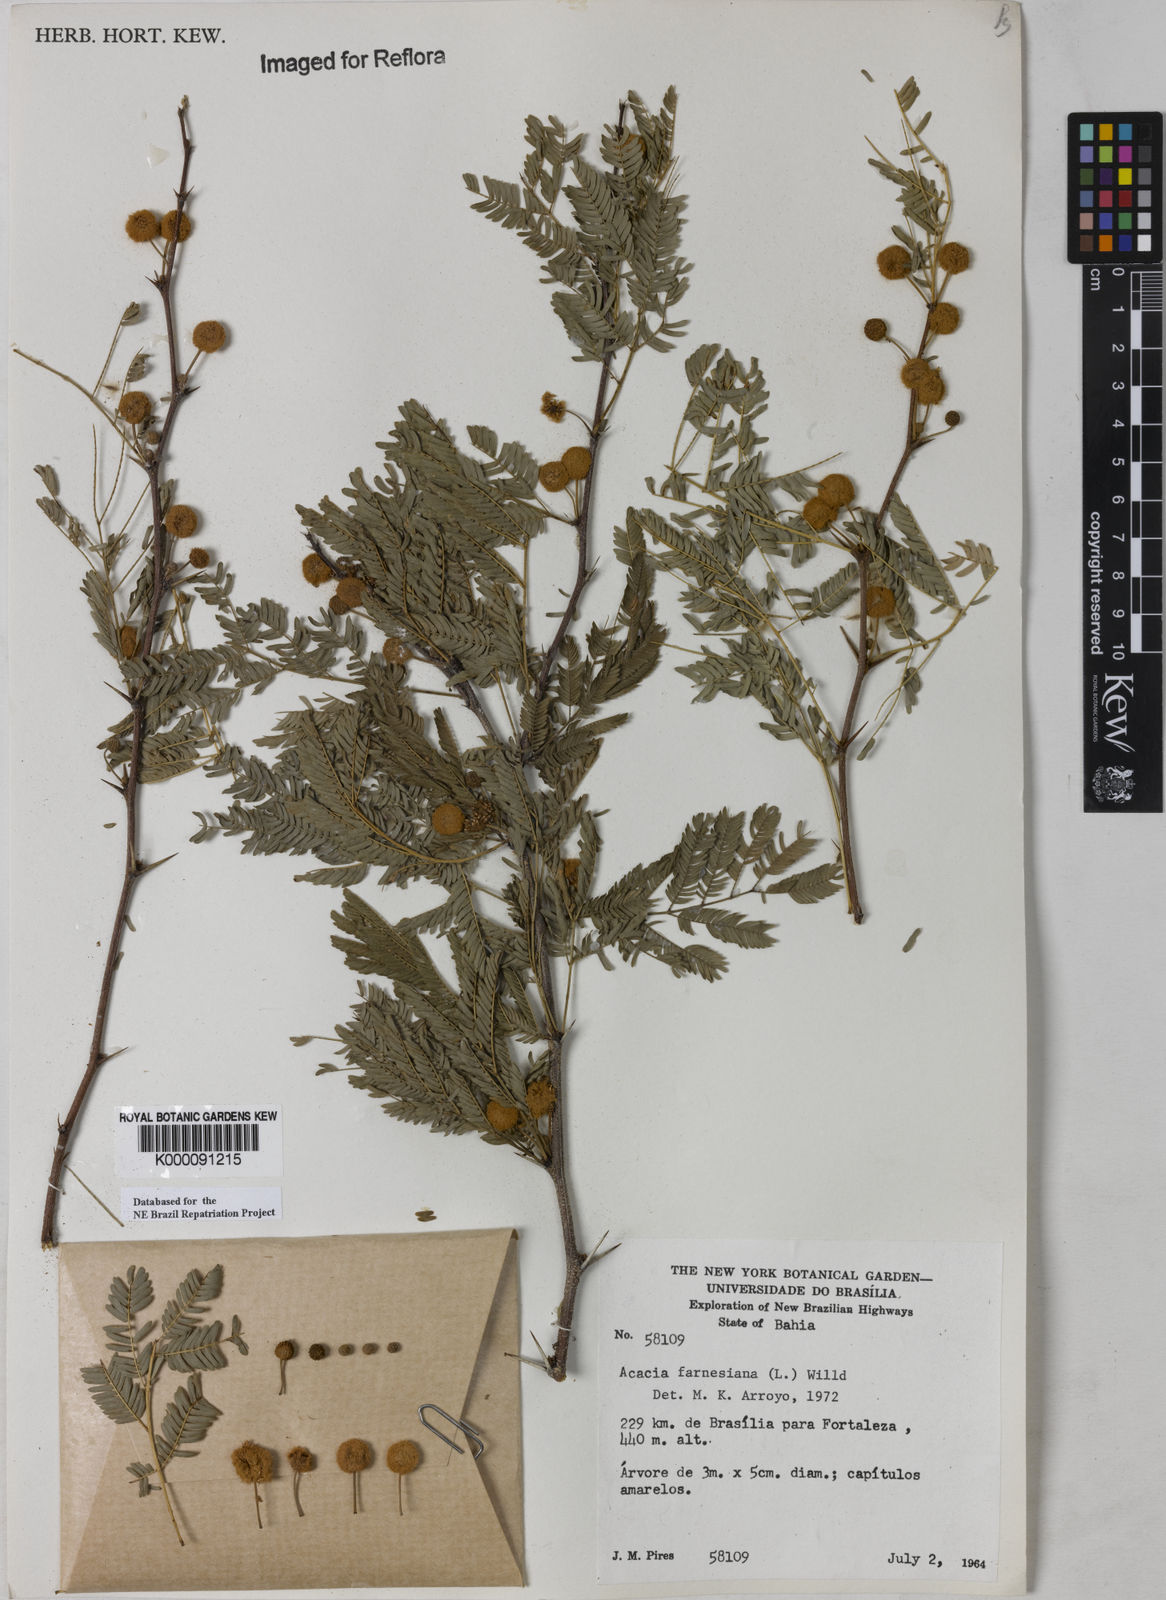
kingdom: Plantae
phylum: Tracheophyta
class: Magnoliopsida
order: Fabales
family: Fabaceae
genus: Vachellia
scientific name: Vachellia farnesiana
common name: Sweet acacia
